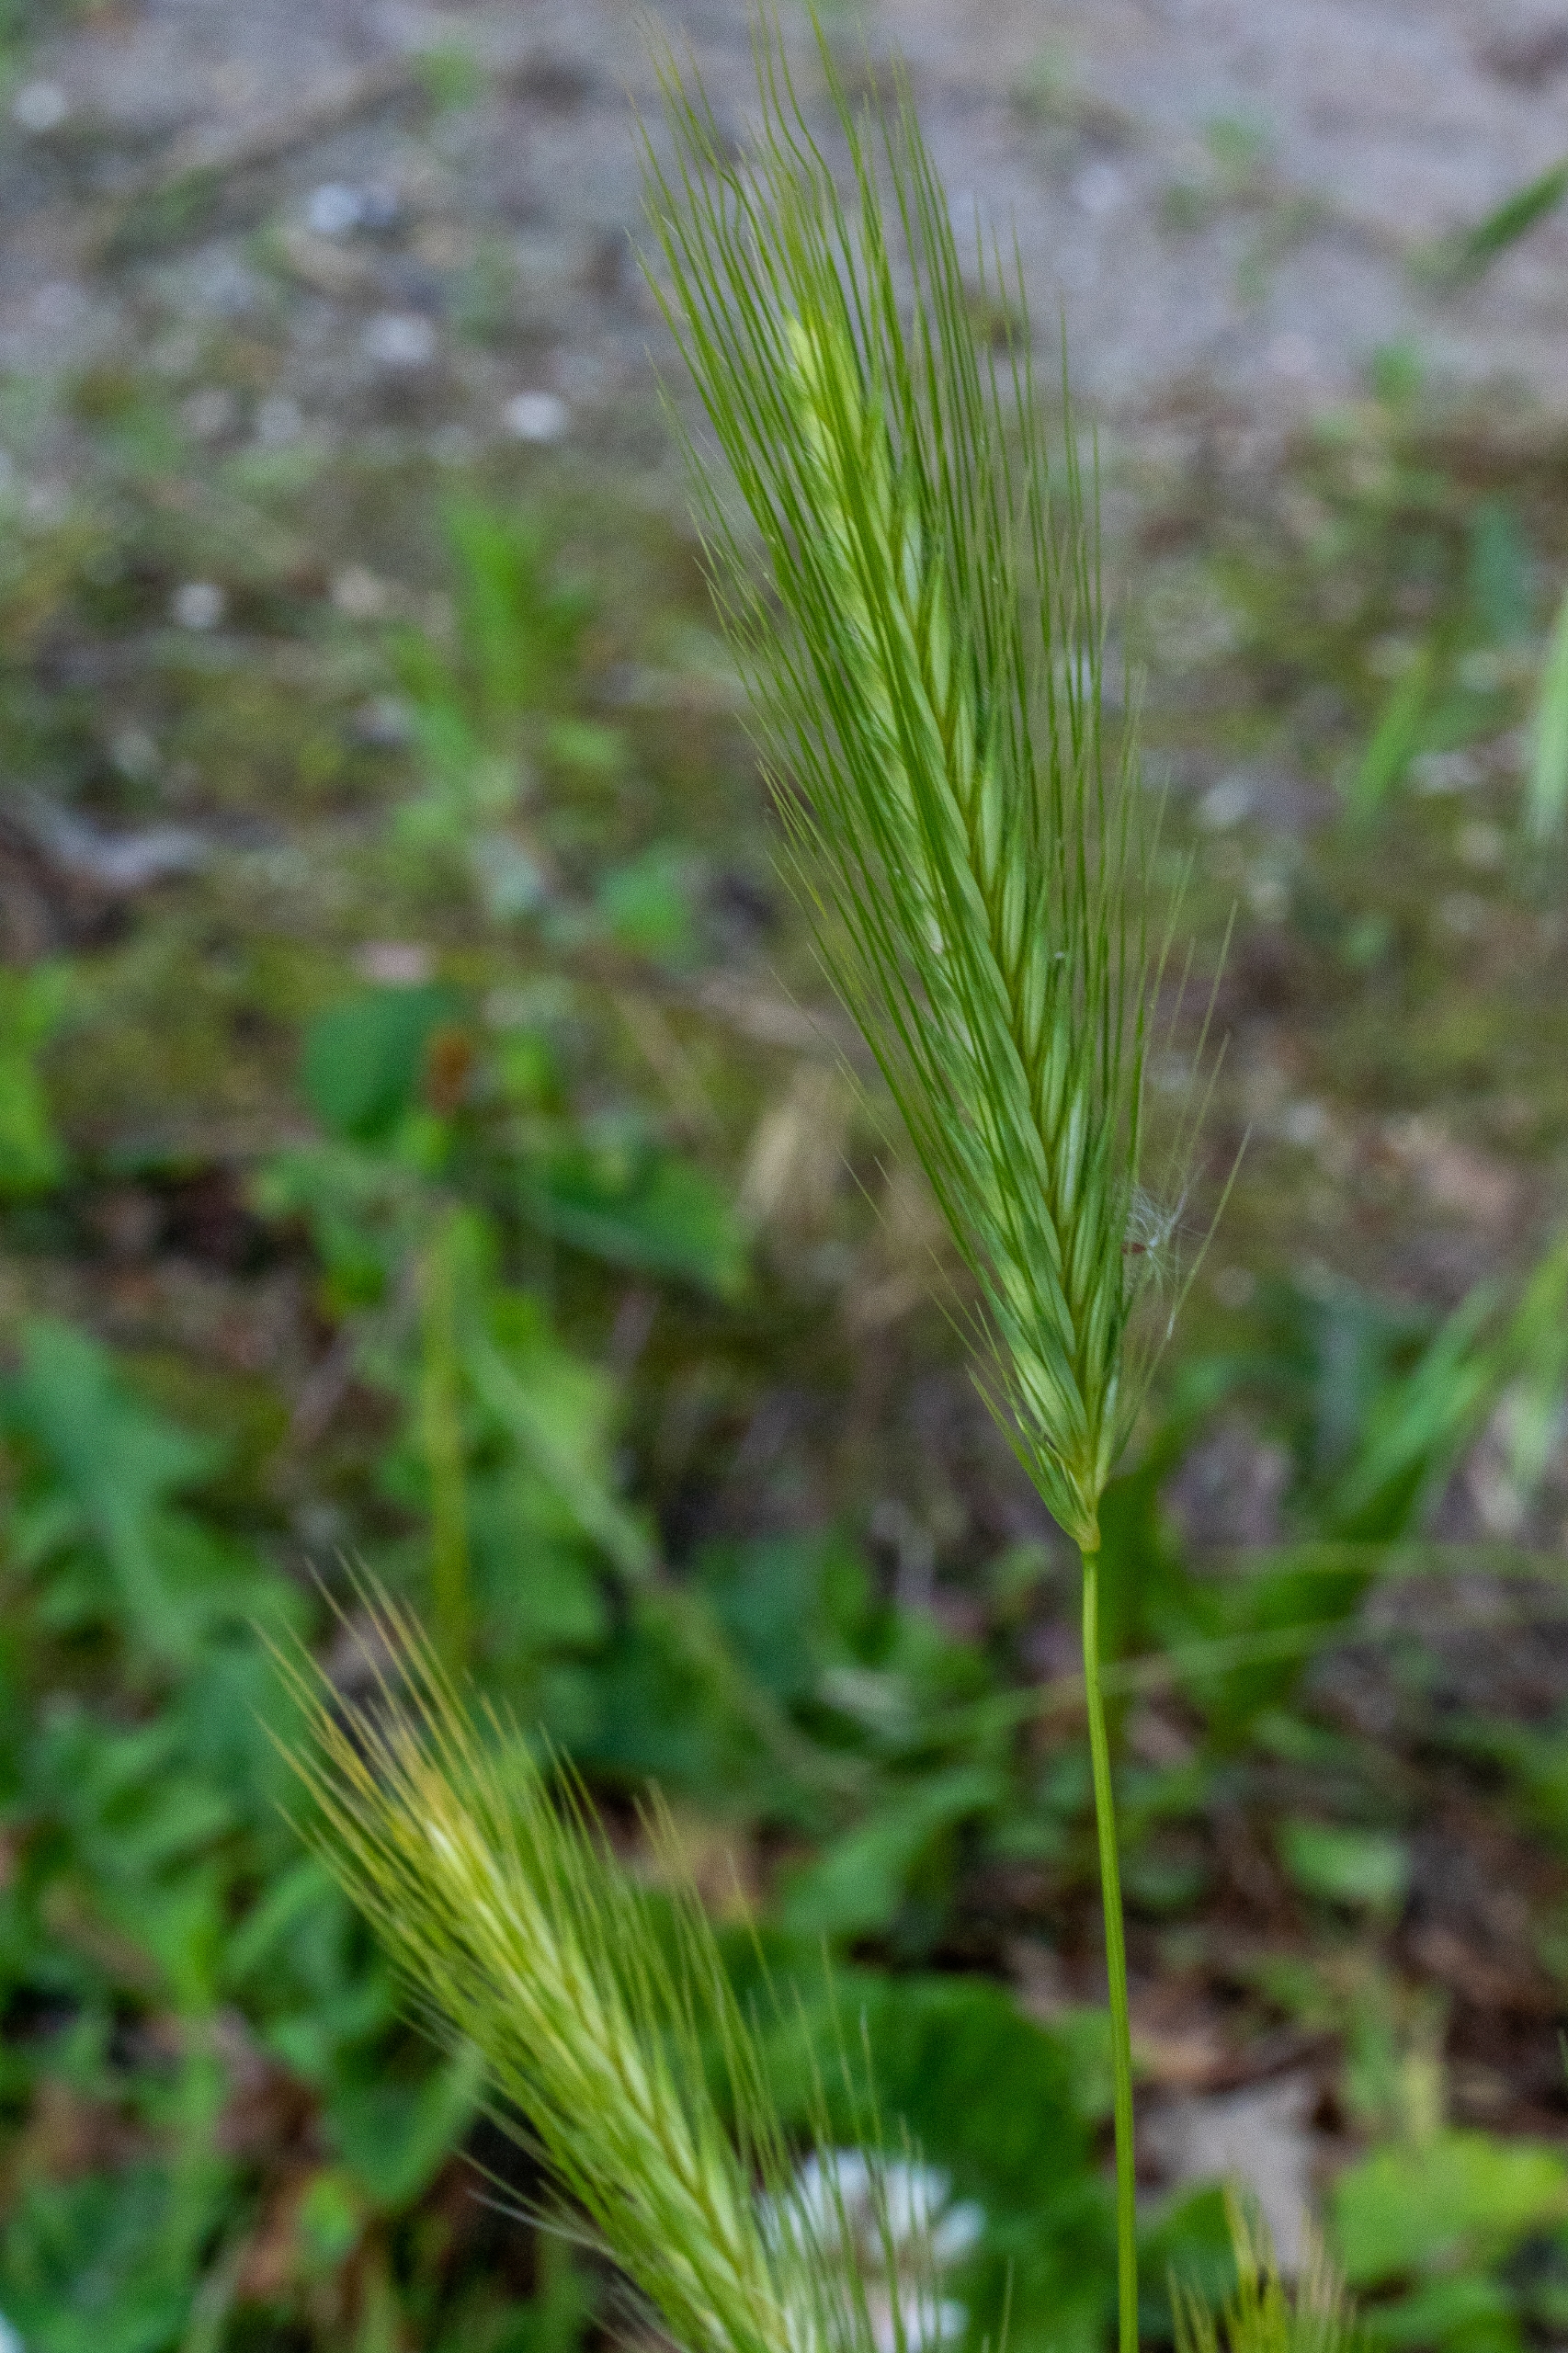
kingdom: Plantae
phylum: Tracheophyta
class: Liliopsida
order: Poales
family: Poaceae
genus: Hordeum
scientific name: Hordeum vulgare
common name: Almindelig byg
